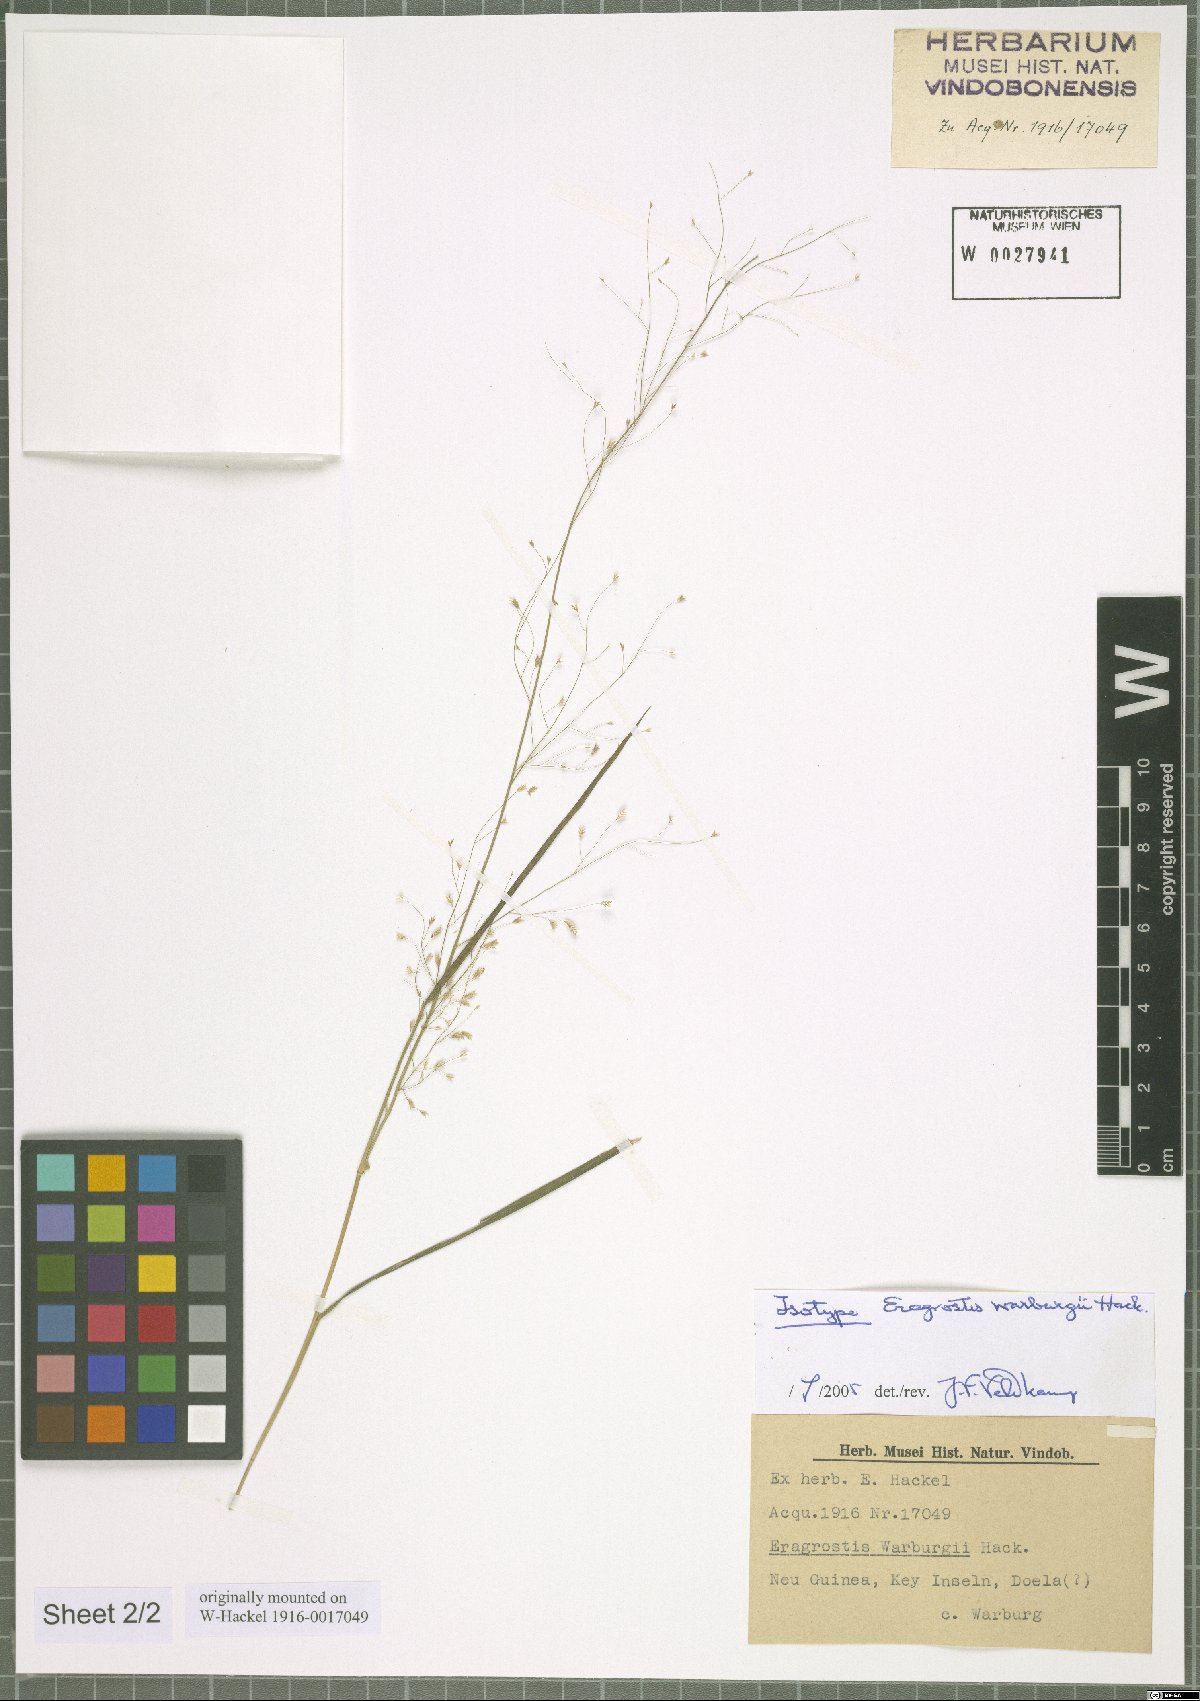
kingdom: Plantae
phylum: Tracheophyta
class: Liliopsida
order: Poales
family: Poaceae
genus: Eragrostis
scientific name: Eragrostis warburgii
